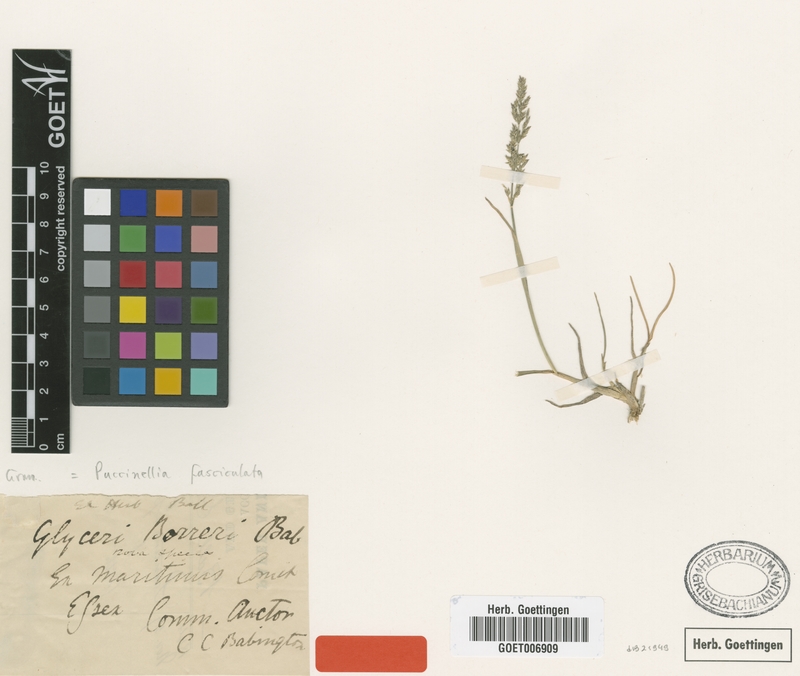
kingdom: Plantae
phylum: Tracheophyta
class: Liliopsida
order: Poales
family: Poaceae
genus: Puccinellia
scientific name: Puccinellia fasciculata
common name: Borrer's saltmarsh-grass
